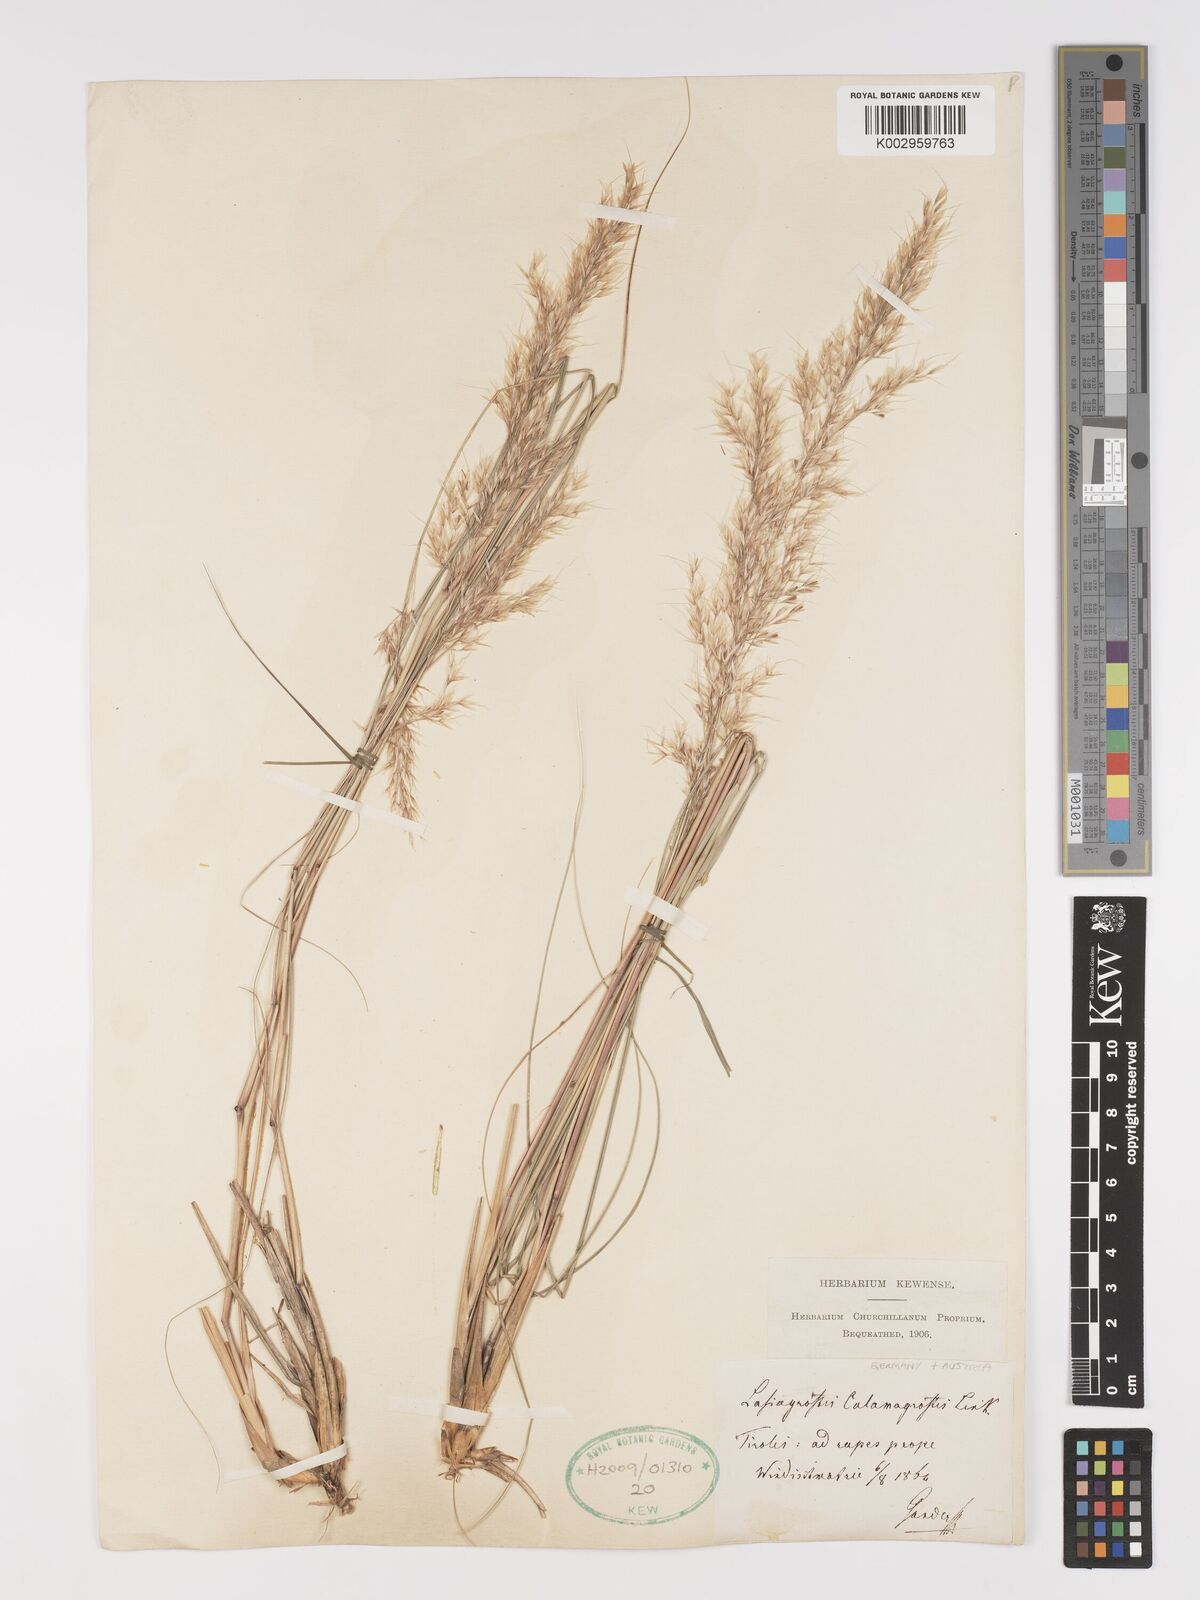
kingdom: Plantae
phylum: Tracheophyta
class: Liliopsida
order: Poales
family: Poaceae
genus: Achnatherum
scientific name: Achnatherum calamagrostis
